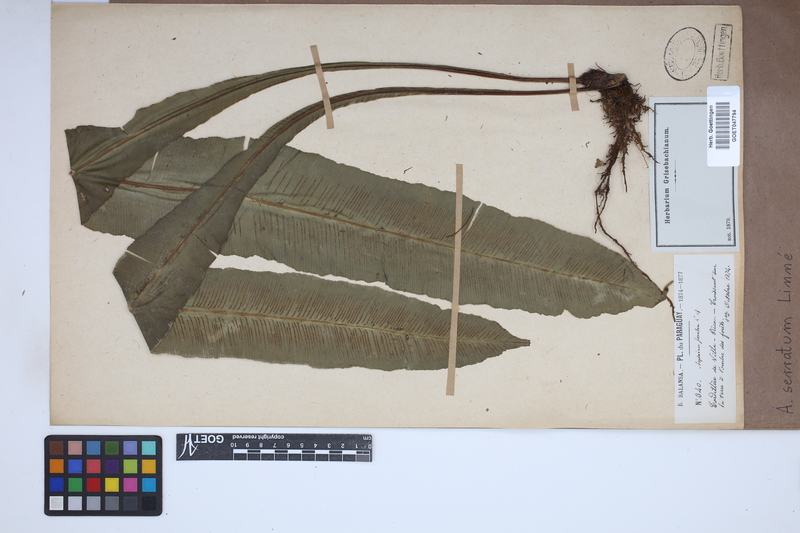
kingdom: Plantae
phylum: Tracheophyta
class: Polypodiopsida
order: Polypodiales
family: Aspleniaceae
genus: Asplenium
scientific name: Asplenium serratum
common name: Wild birdnest fern
